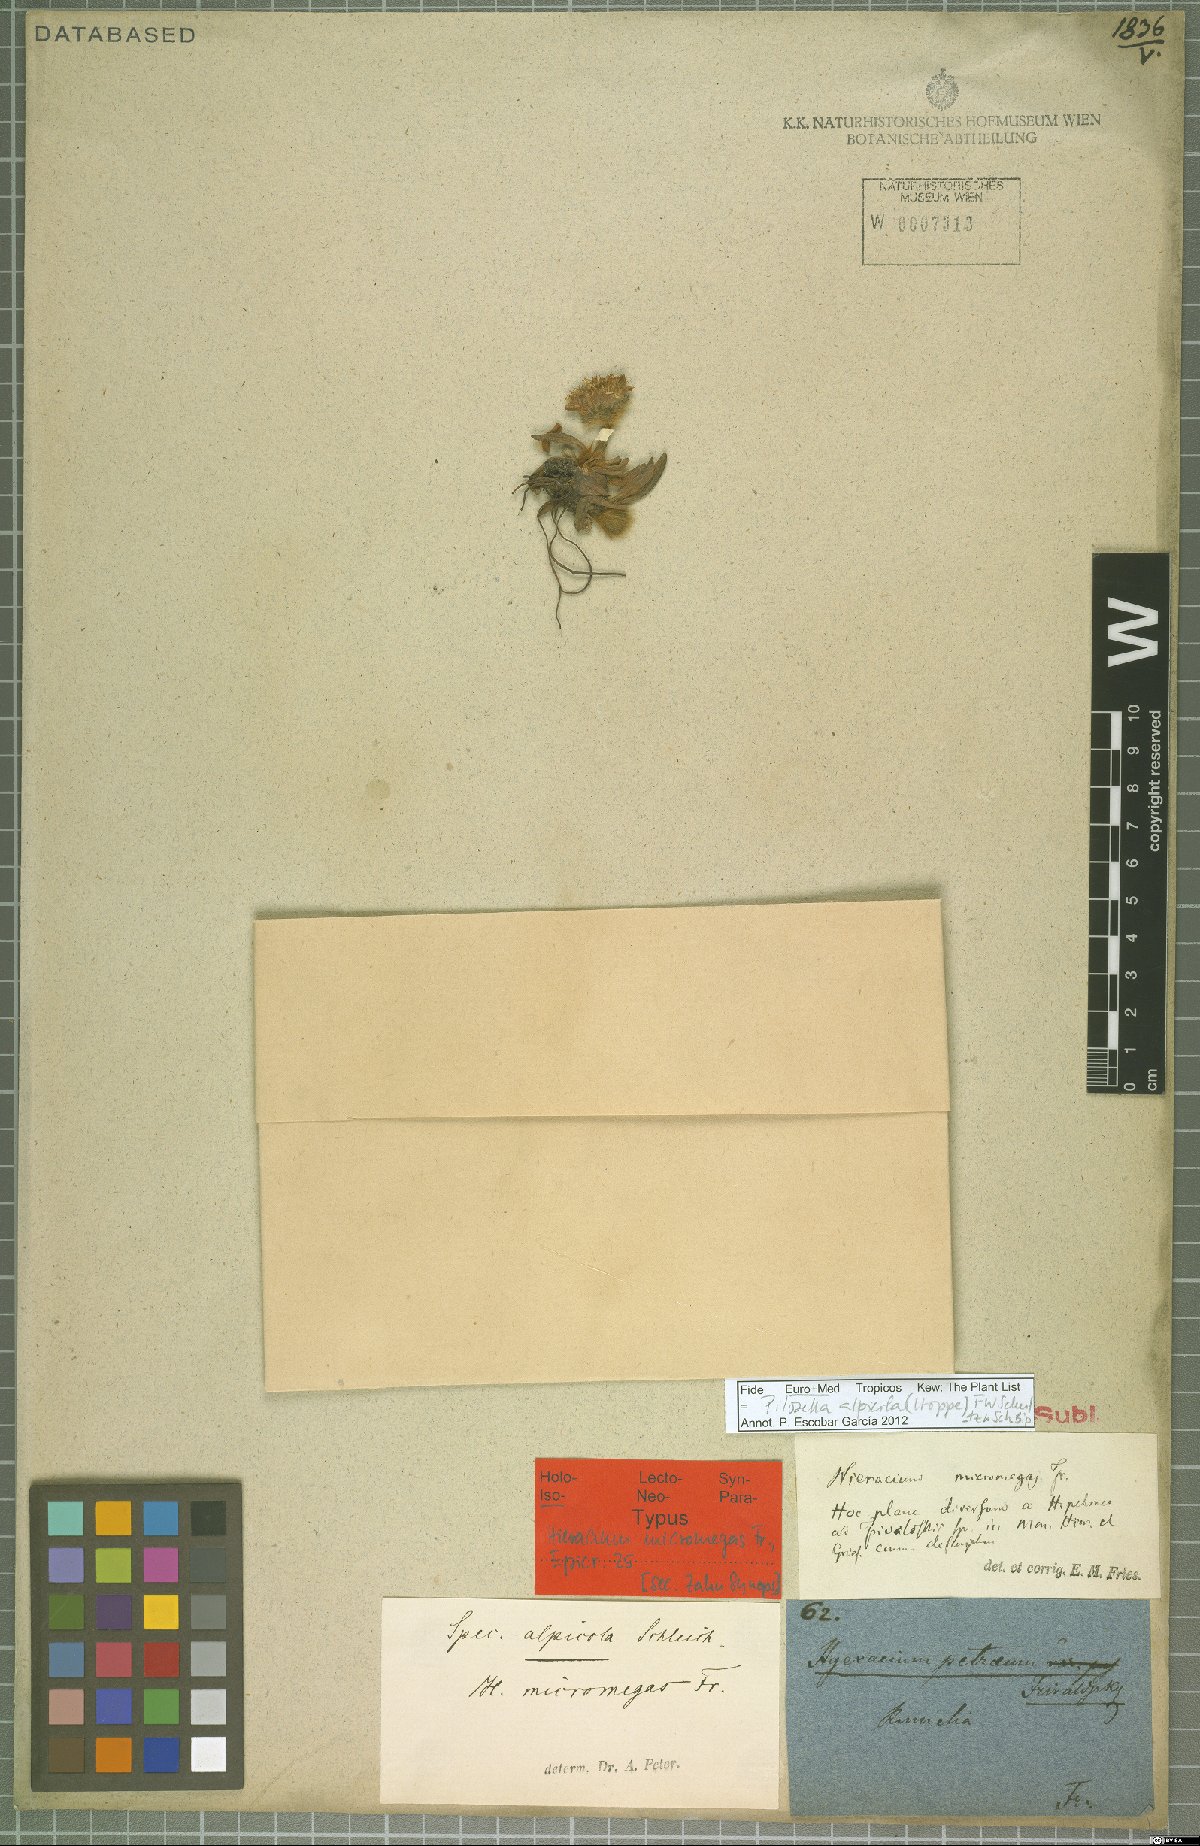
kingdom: Plantae
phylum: Tracheophyta
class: Magnoliopsida
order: Asterales
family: Asteraceae
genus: Pilosella
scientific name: Pilosella alpicola
